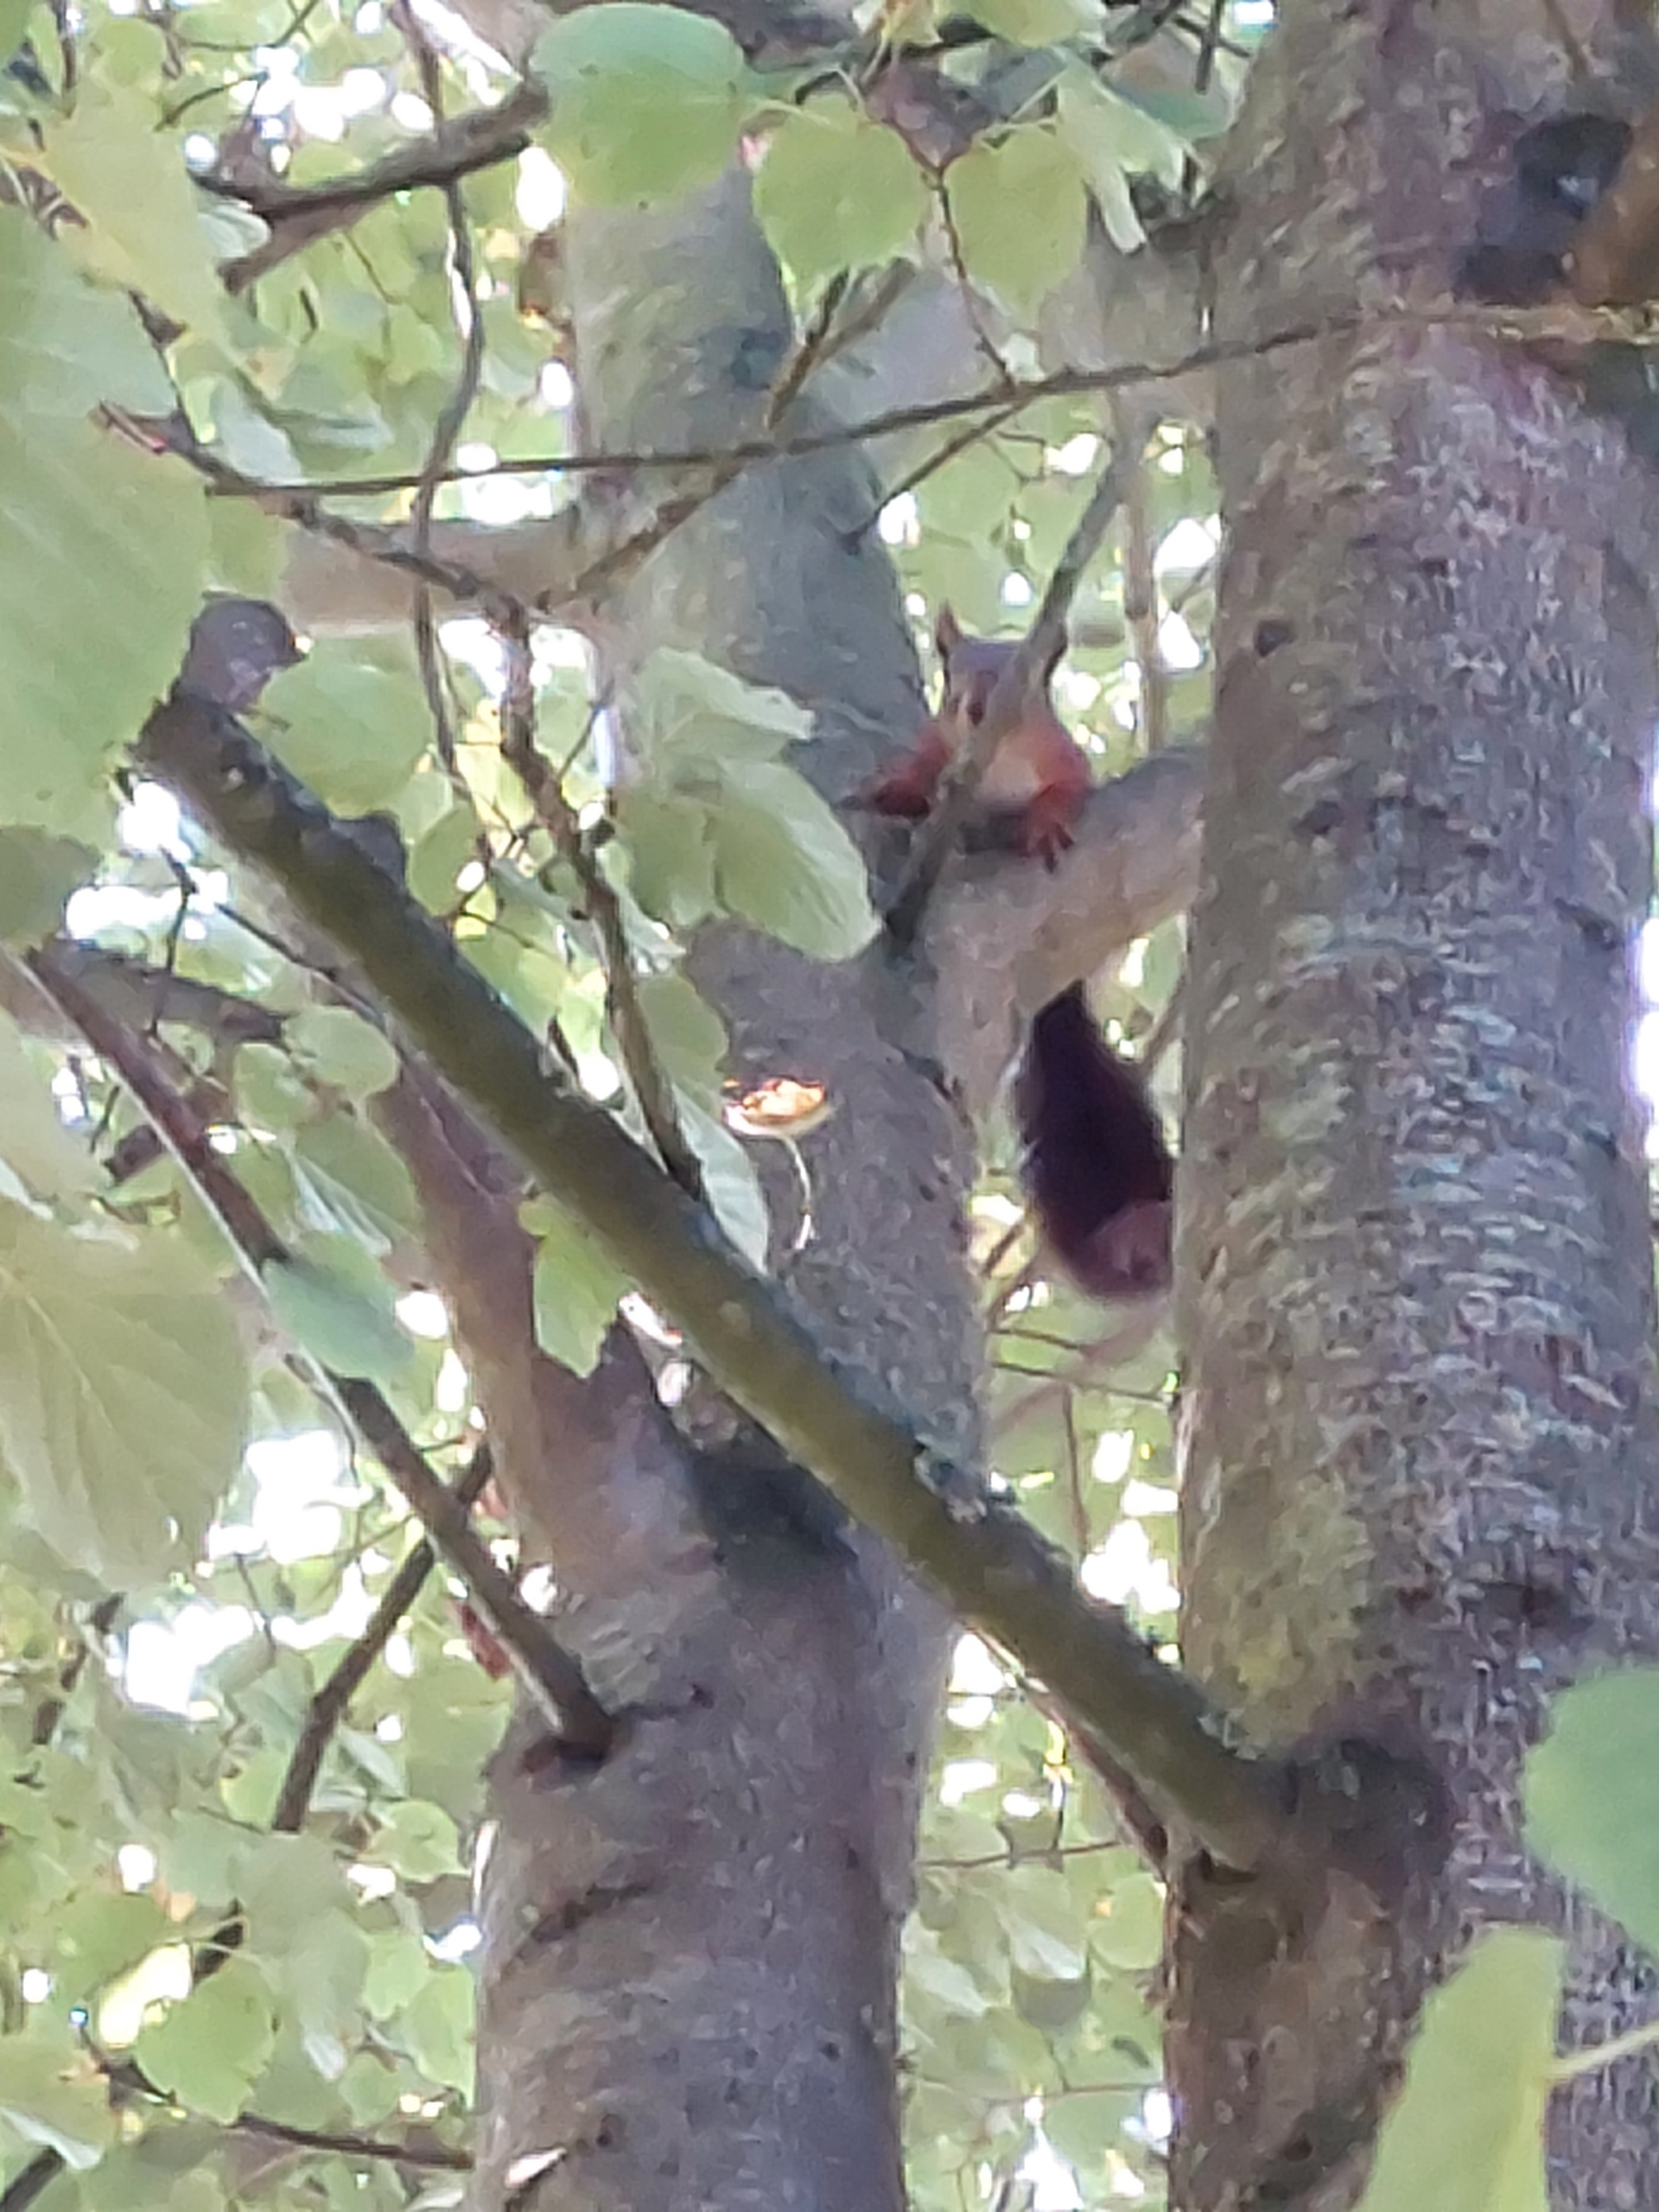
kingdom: Animalia
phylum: Chordata
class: Mammalia
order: Rodentia
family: Sciuridae
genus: Sciurus
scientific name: Sciurus vulgaris
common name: Egern
